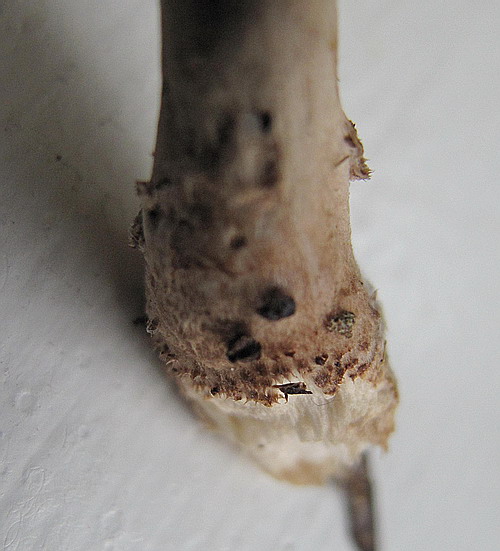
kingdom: Fungi
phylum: Basidiomycota
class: Agaricomycetes
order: Agaricales
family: Agaricaceae
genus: Lepiota
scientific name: Lepiota felina
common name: sortskællet parasolhat
